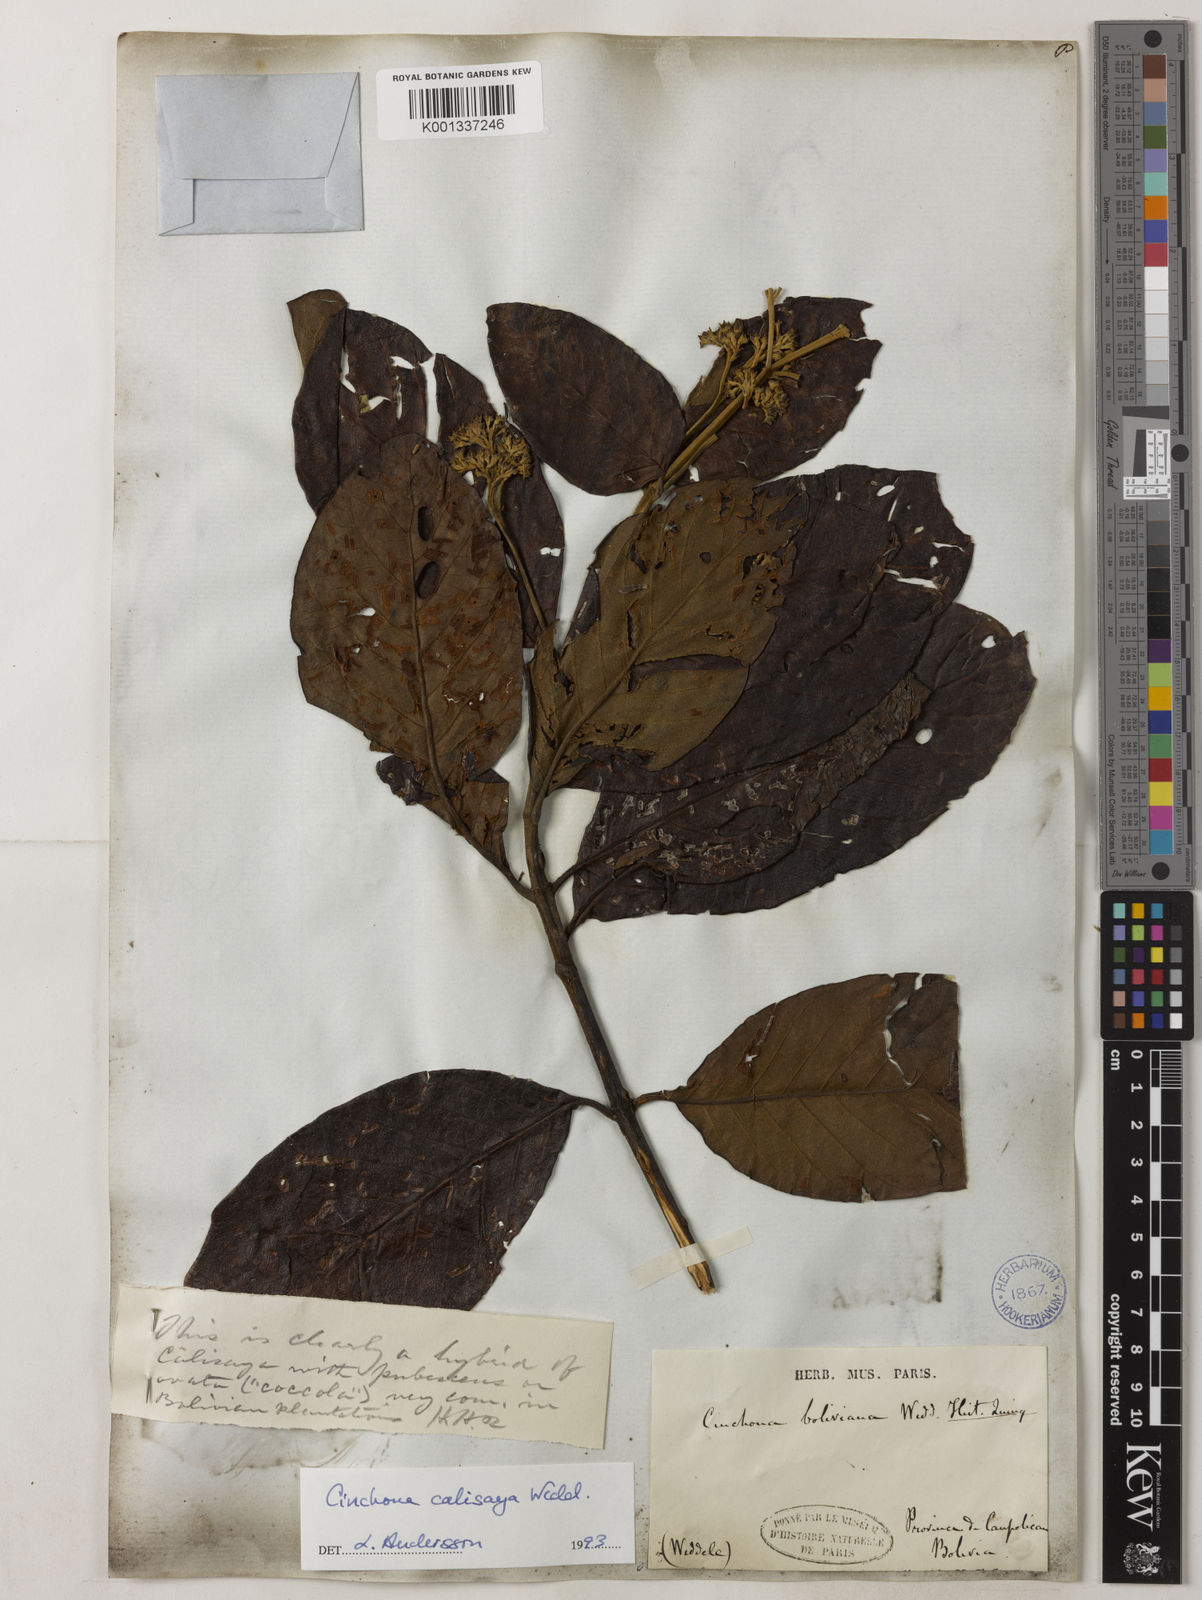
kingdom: Plantae
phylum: Tracheophyta
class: Magnoliopsida
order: Gentianales
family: Rubiaceae
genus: Cinchona
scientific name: Cinchona calisaya
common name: Ledgerbark
